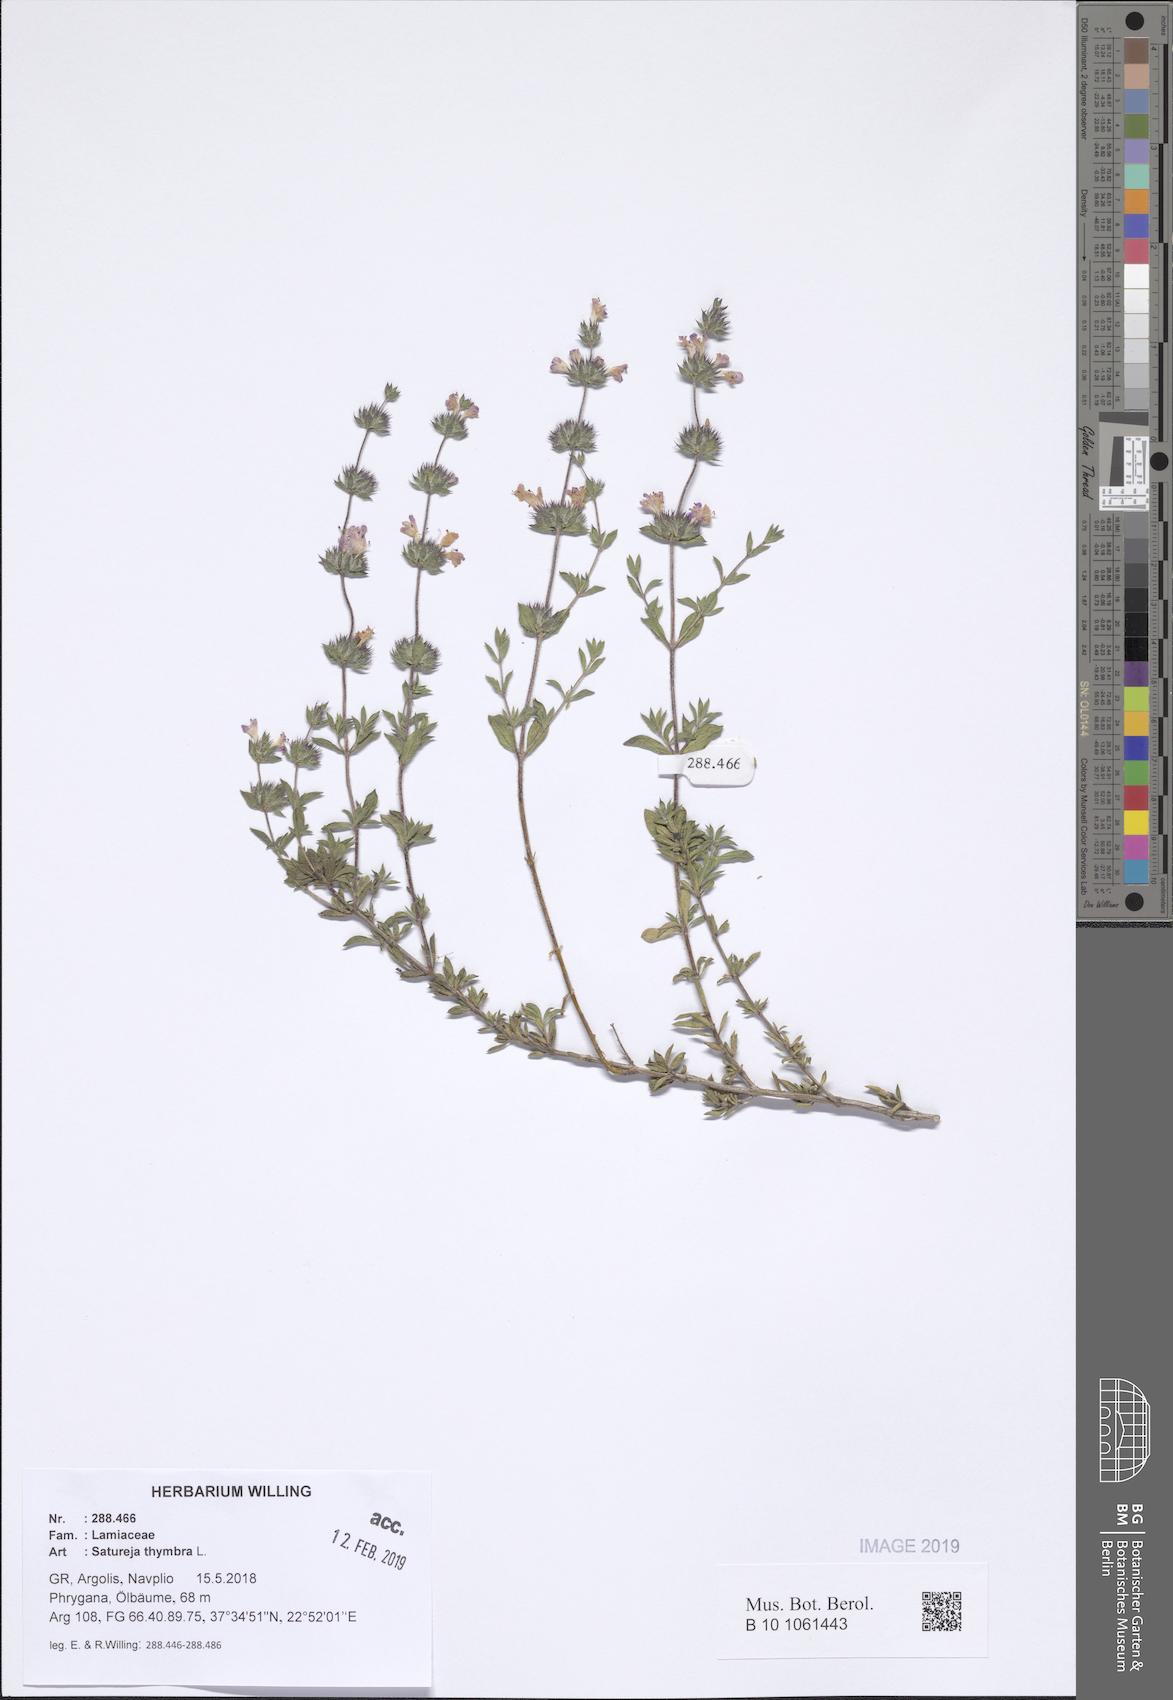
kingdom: Plantae
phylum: Tracheophyta
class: Magnoliopsida
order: Lamiales
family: Lamiaceae
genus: Satureja
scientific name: Satureja thymbra
